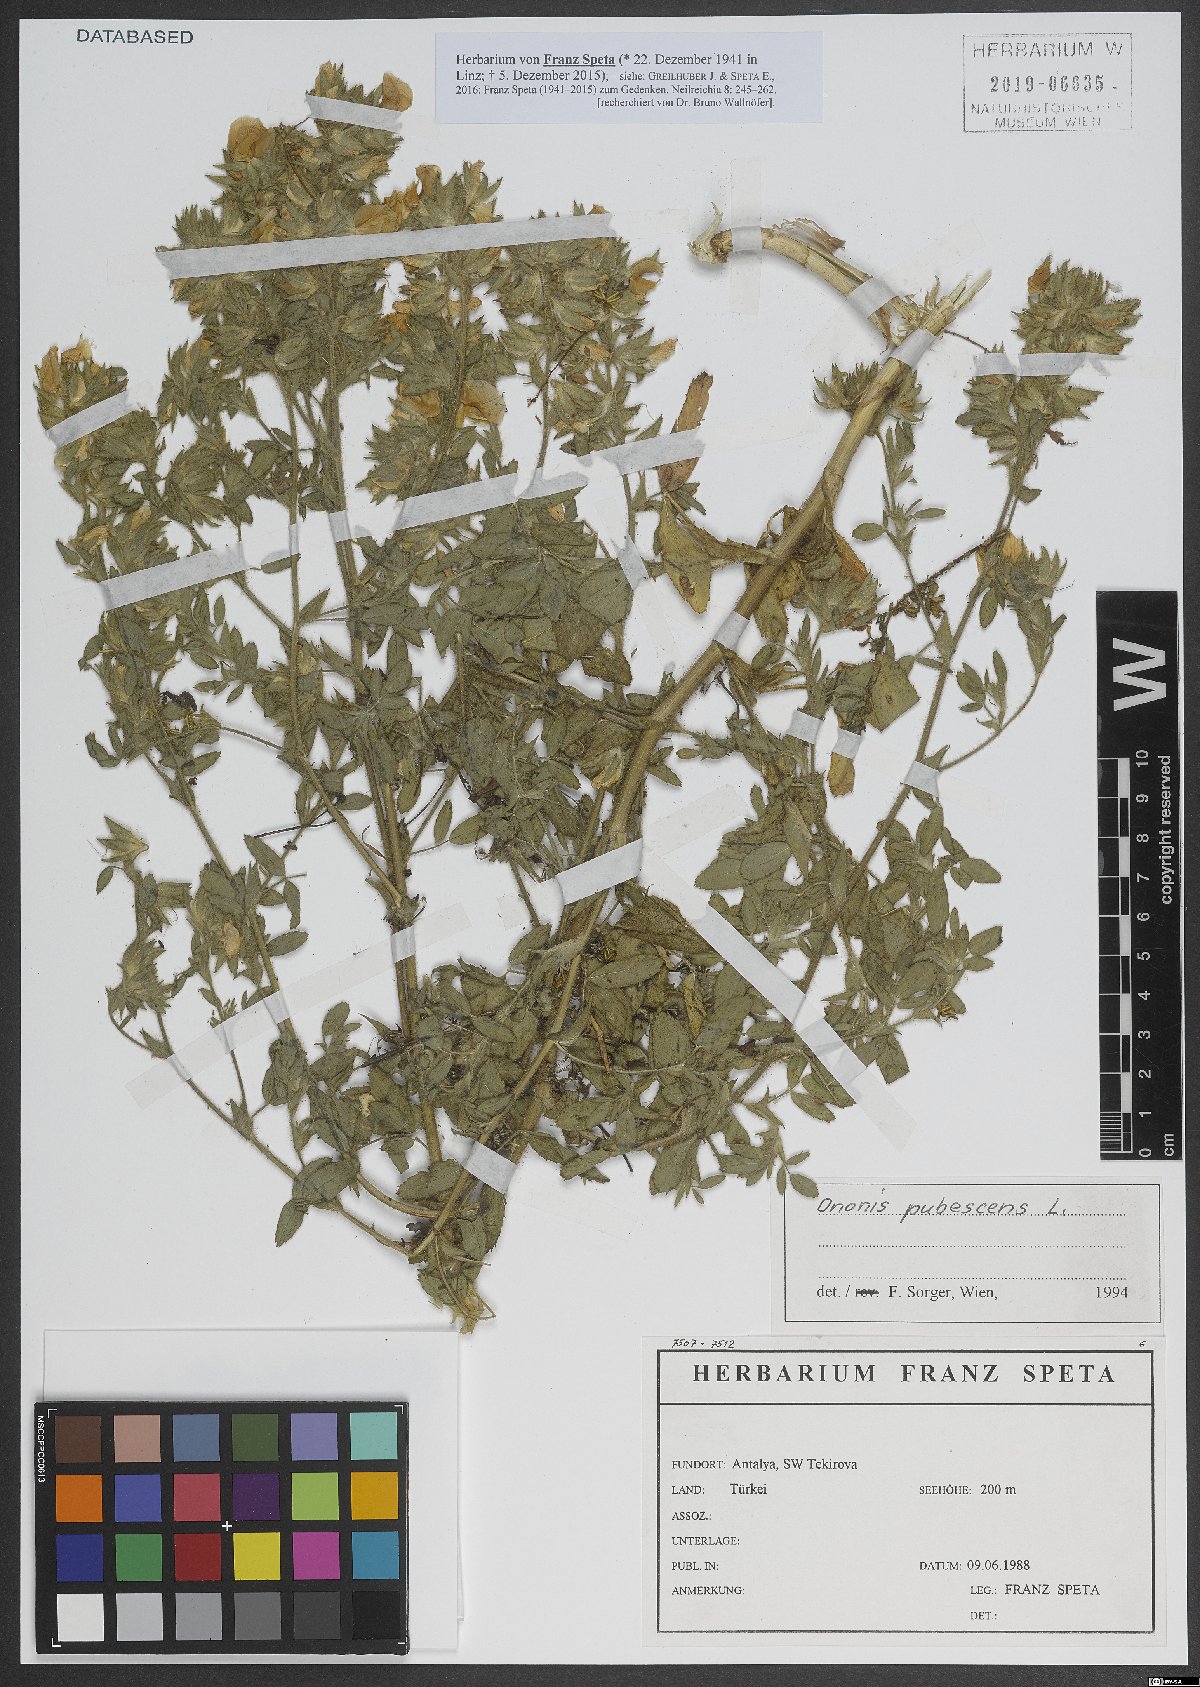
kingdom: Plantae
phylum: Tracheophyta
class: Magnoliopsida
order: Fabales
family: Fabaceae
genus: Ononis
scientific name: Ononis pubescens
